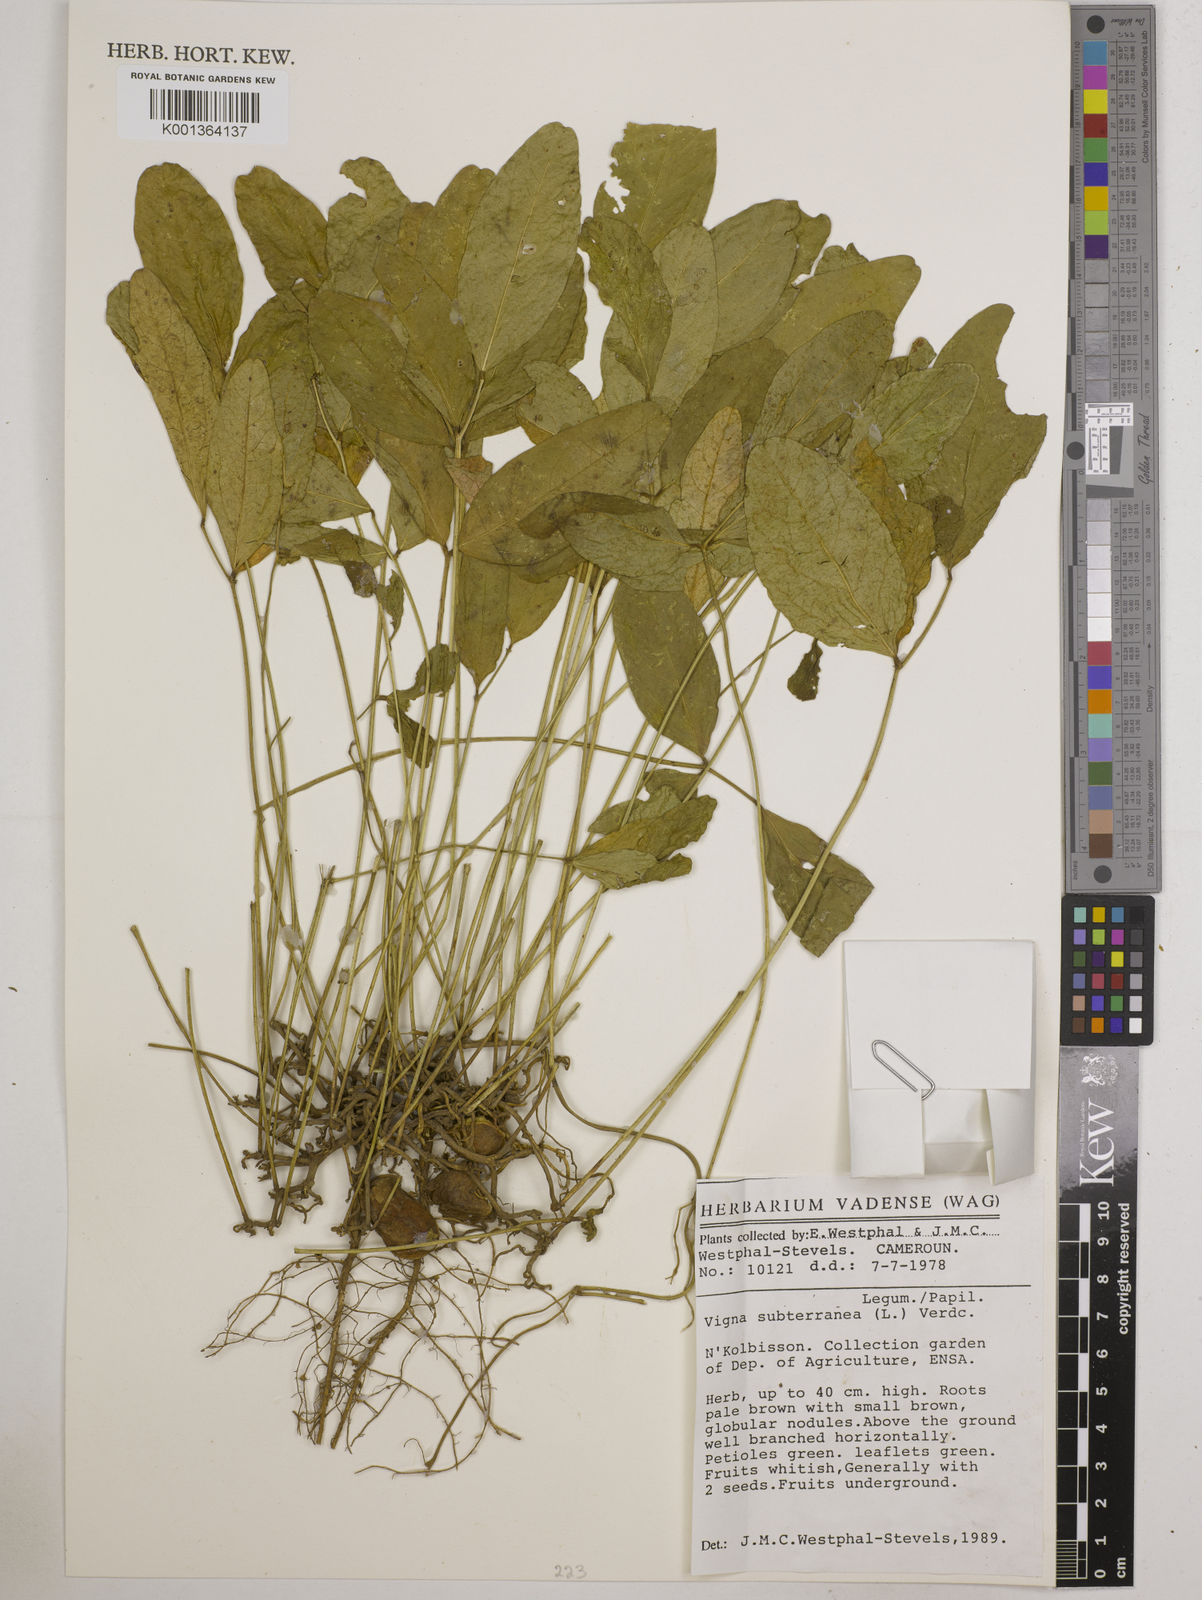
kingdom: Plantae
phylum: Tracheophyta
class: Magnoliopsida
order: Fabales
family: Fabaceae
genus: Vigna
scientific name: Vigna subterranea
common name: Bambara groundnut
